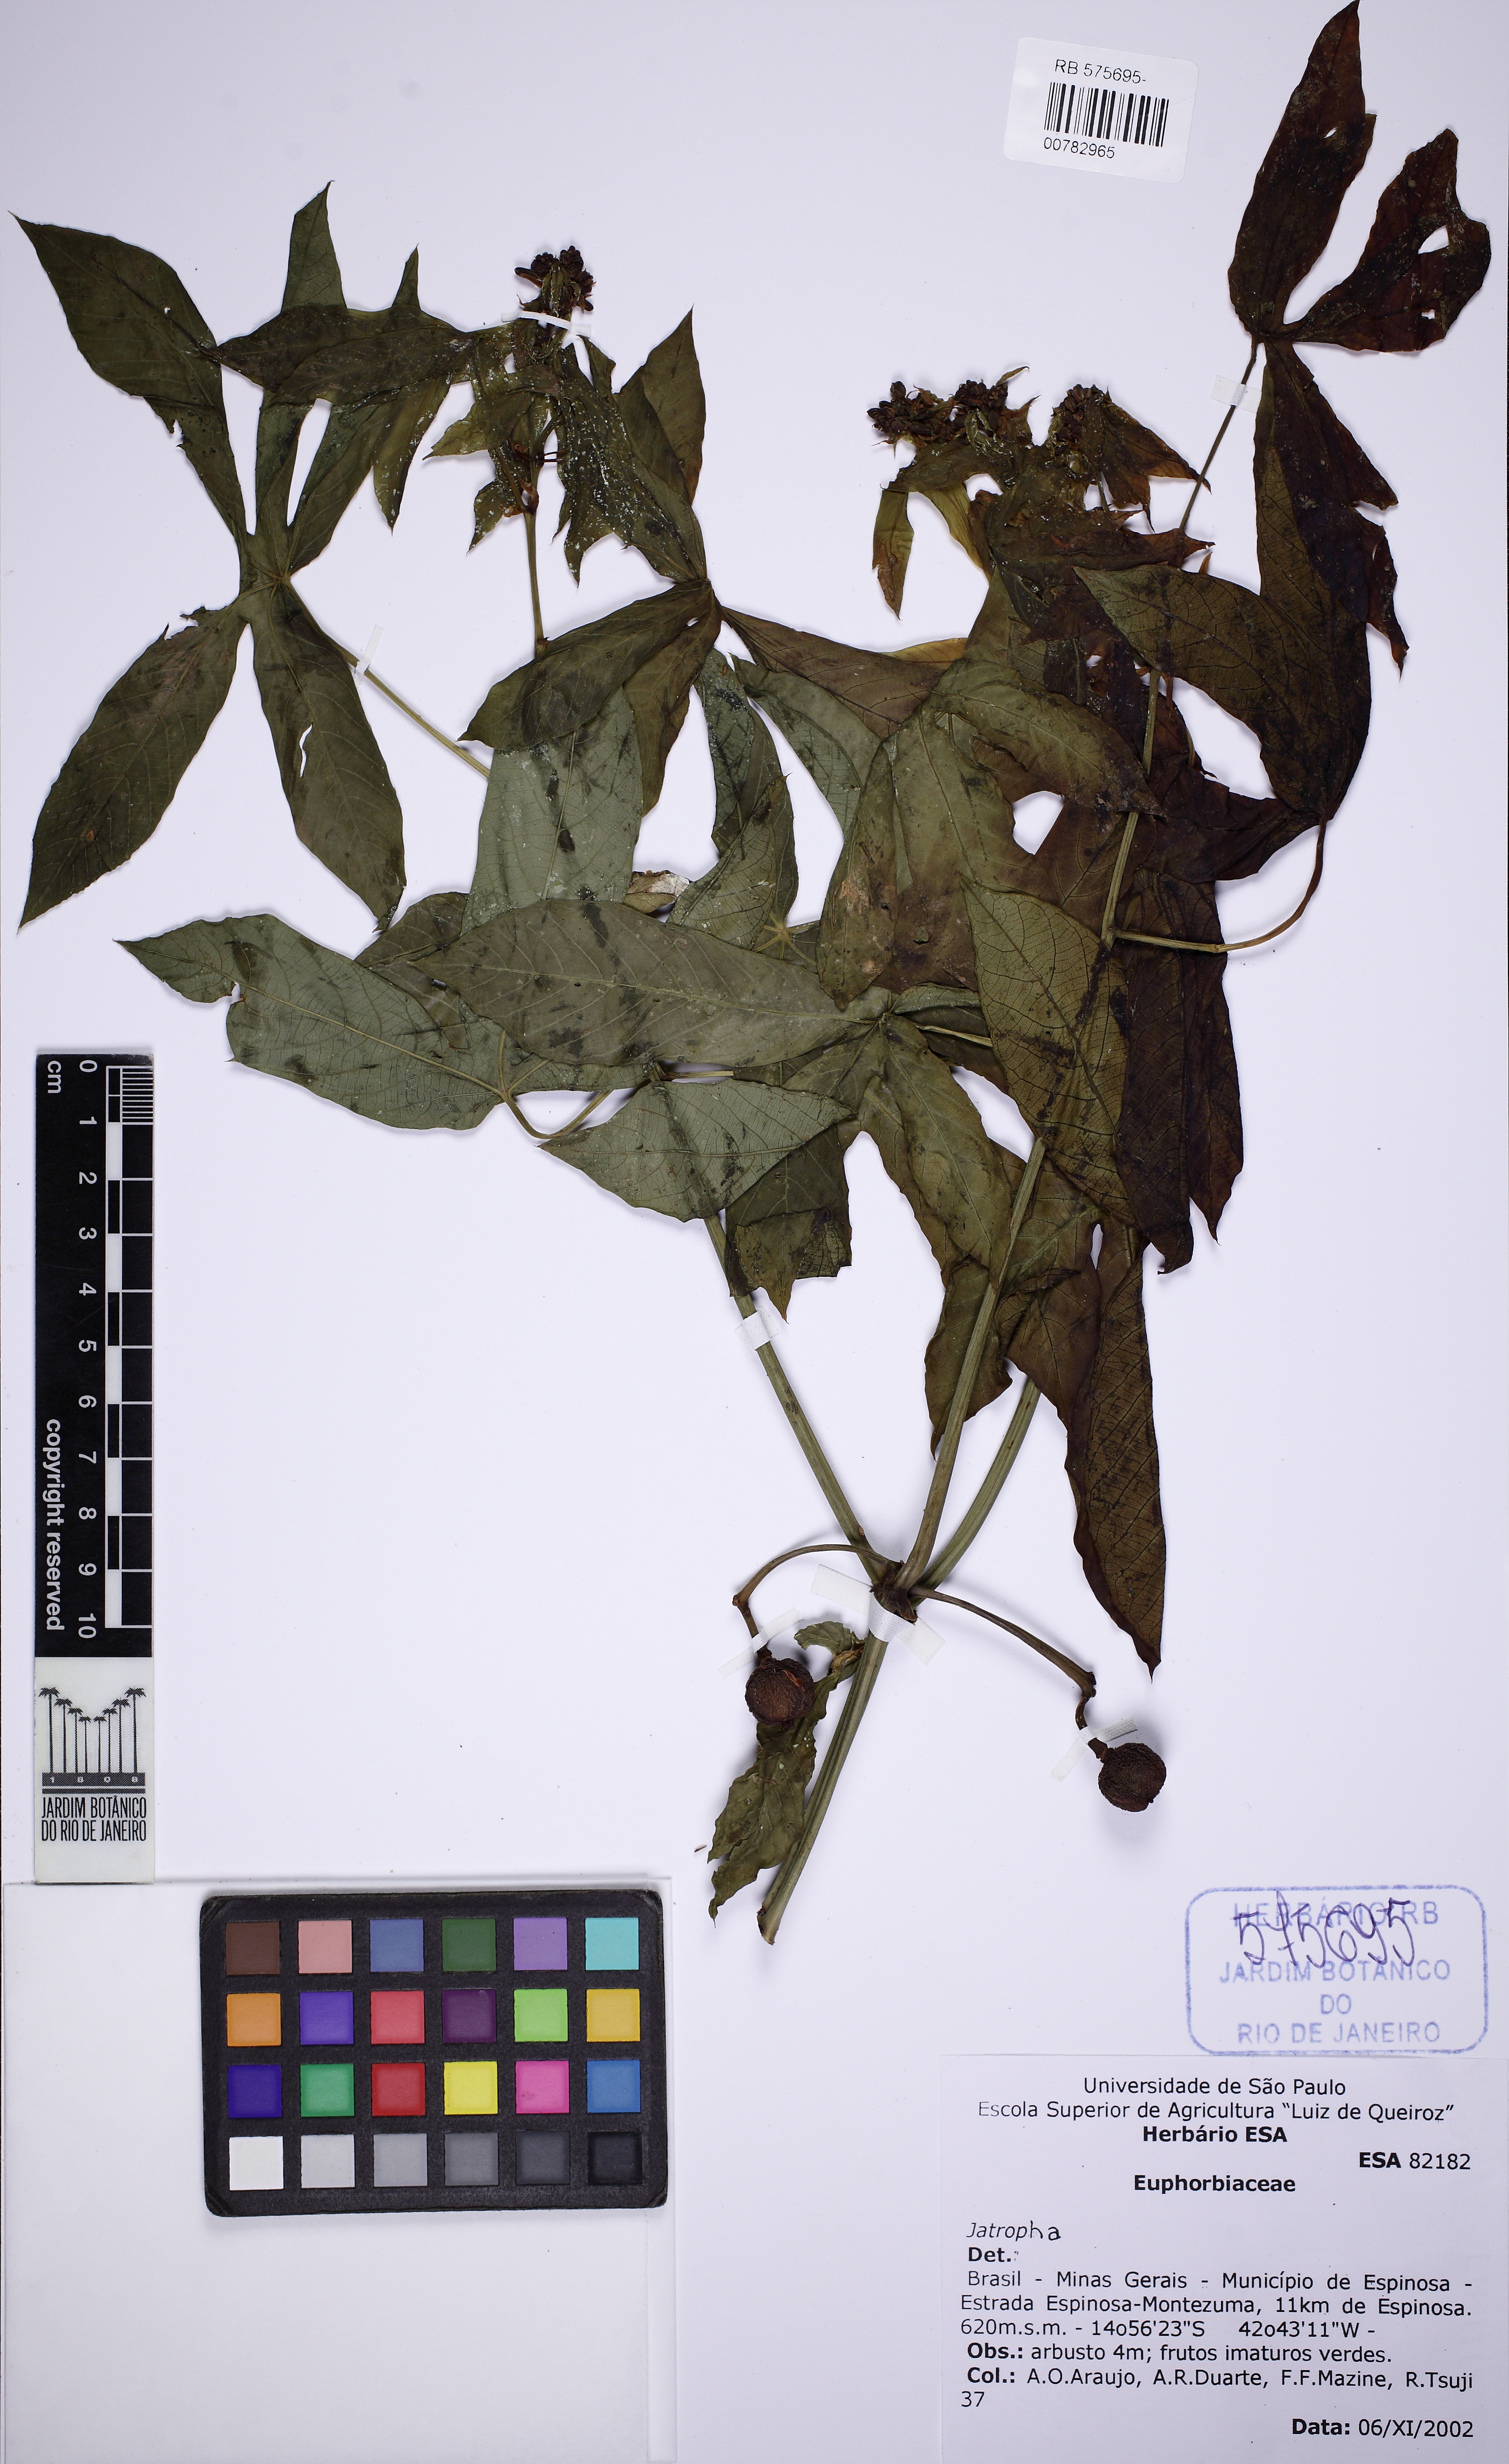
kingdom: Plantae
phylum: Tracheophyta
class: Magnoliopsida
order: Malpighiales
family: Euphorbiaceae
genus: Manihot
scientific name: Manihot janiphoides
